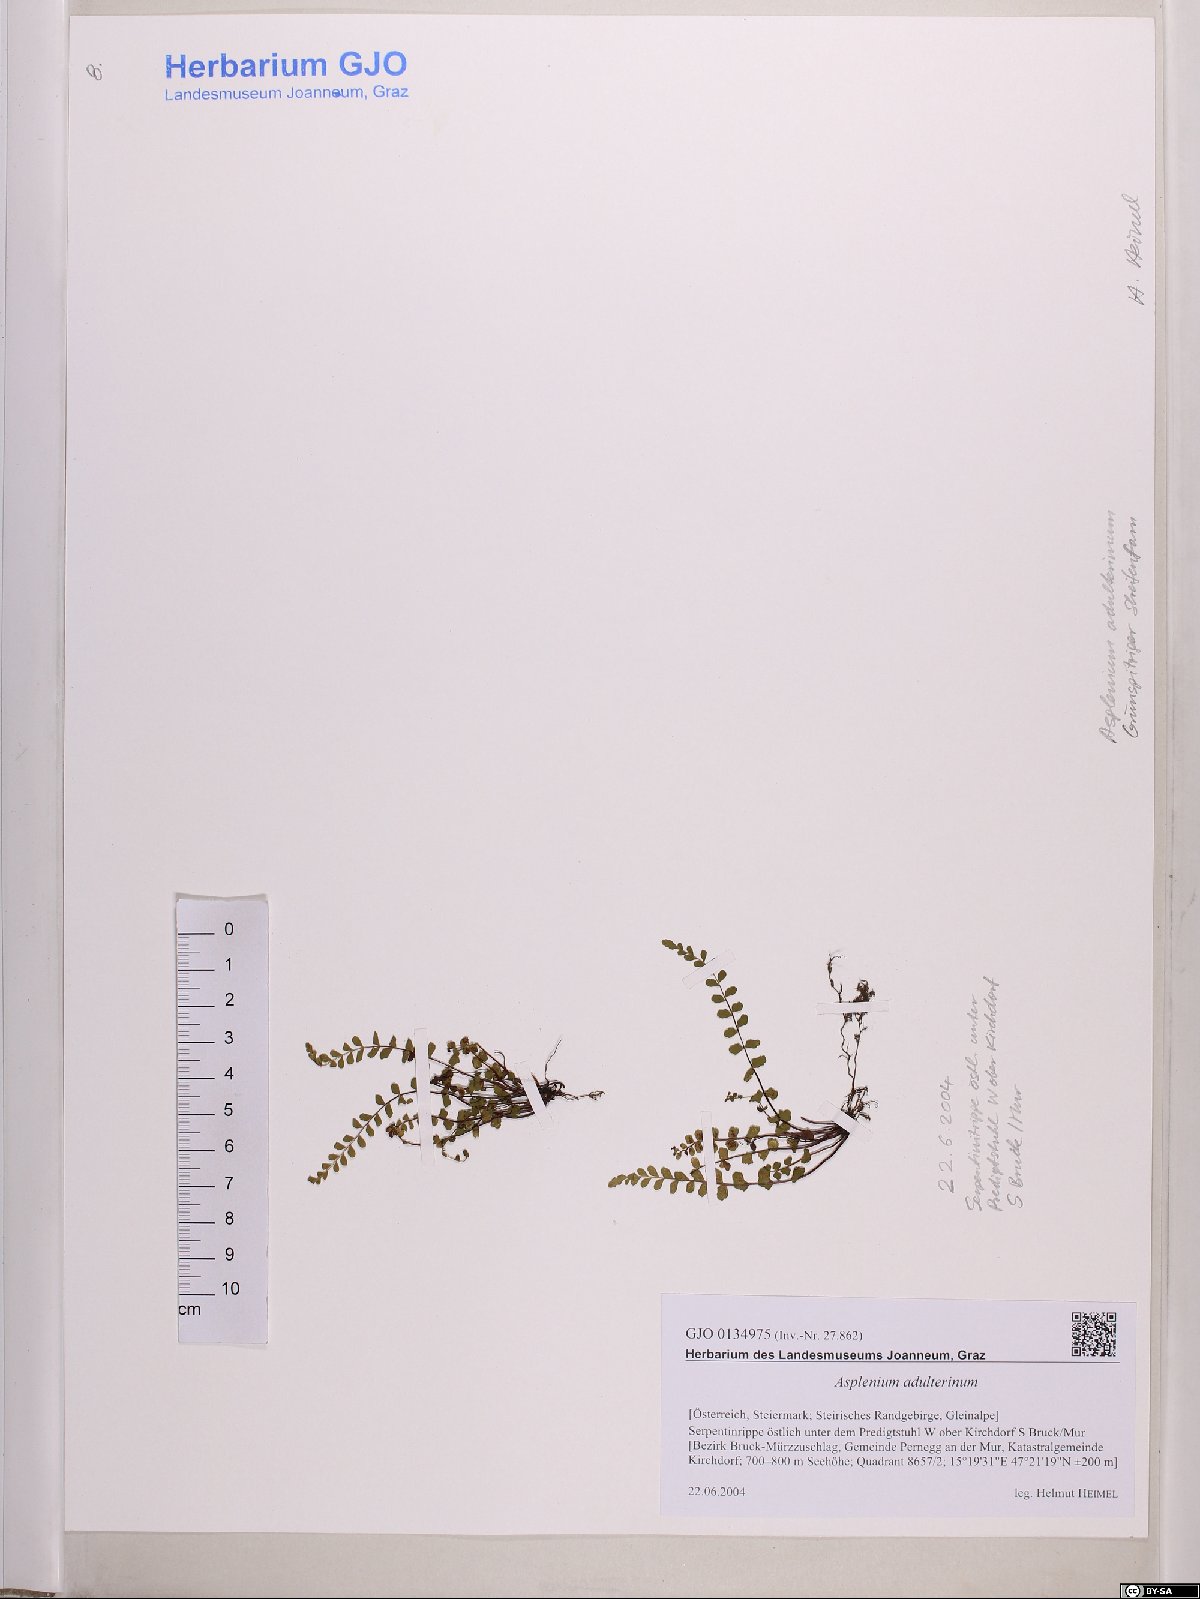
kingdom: Plantae
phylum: Tracheophyta
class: Polypodiopsida
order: Polypodiales
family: Aspleniaceae
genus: Asplenium
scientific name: Asplenium adulterinum
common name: Adulterated spleenwort
